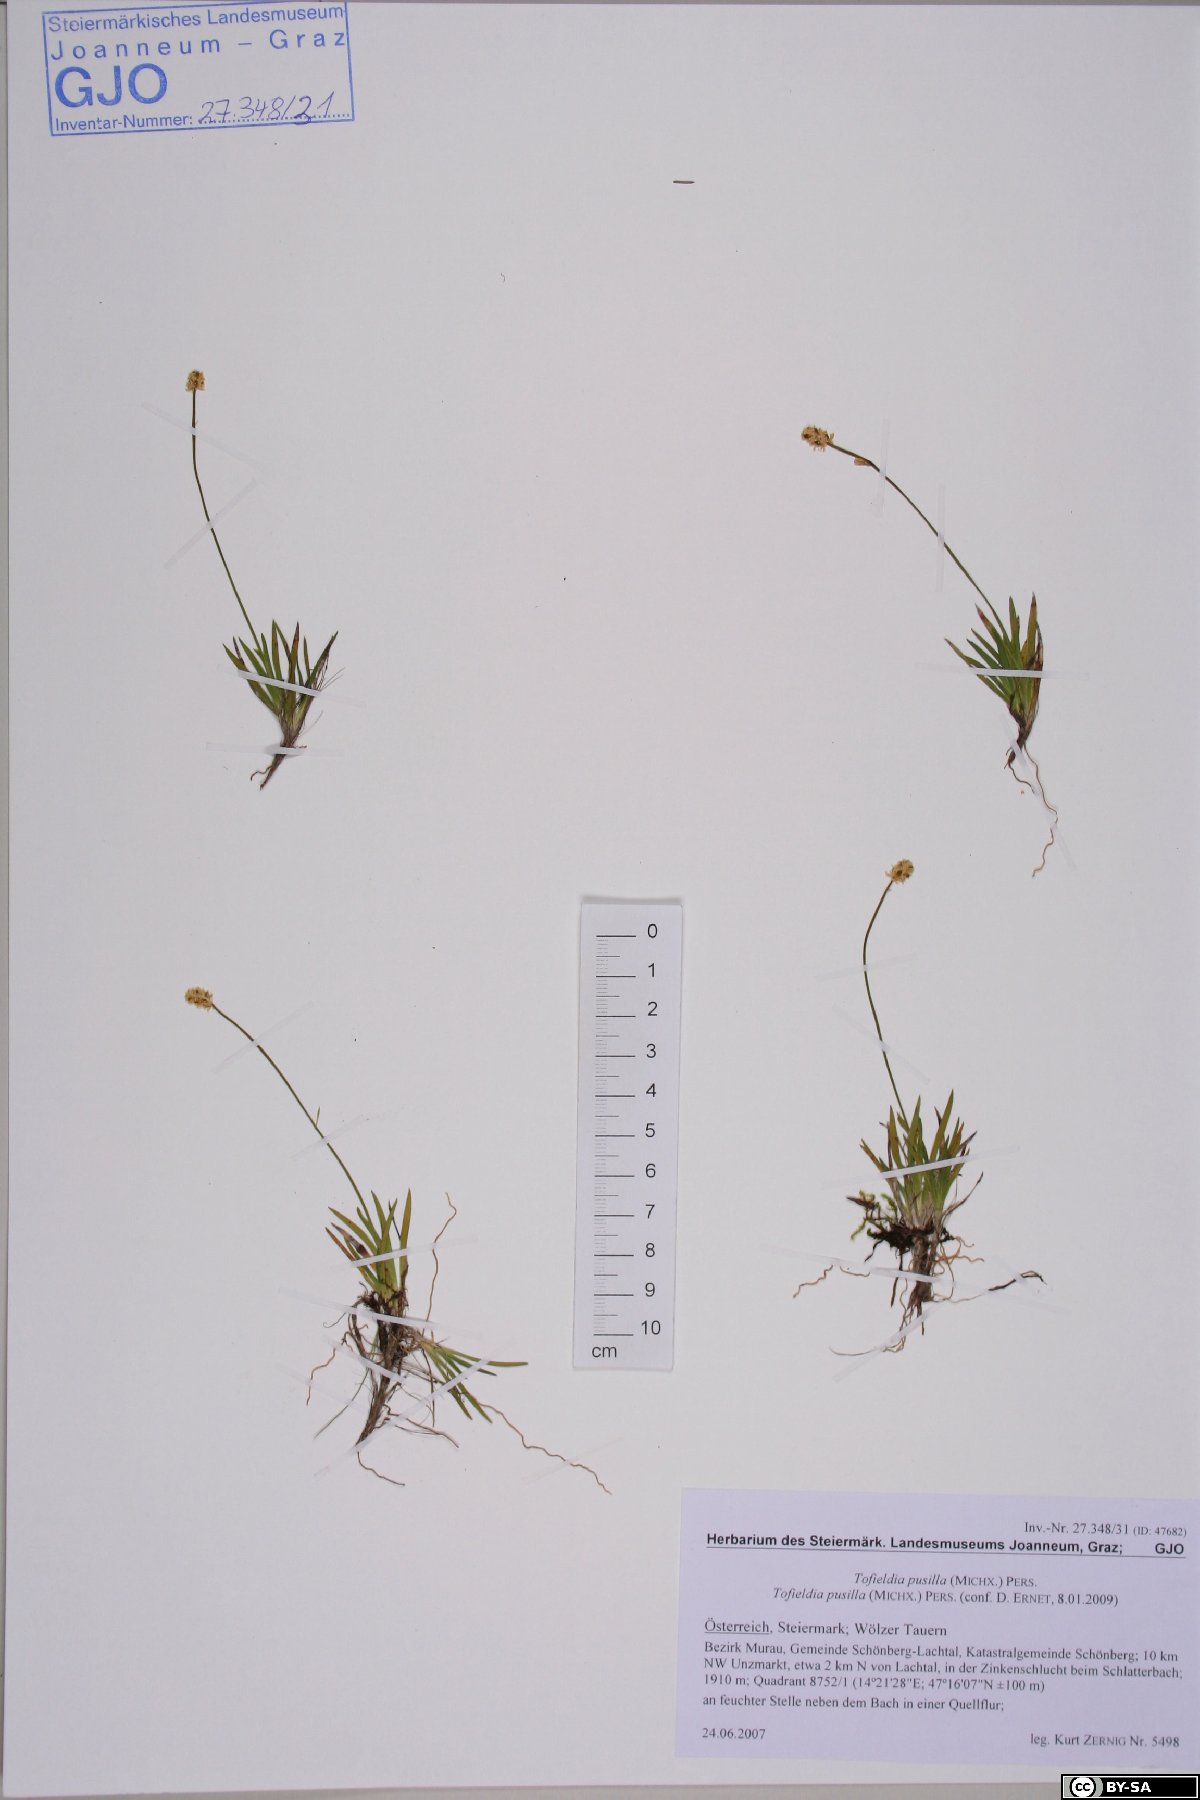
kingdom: Plantae
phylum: Tracheophyta
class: Liliopsida
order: Alismatales
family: Tofieldiaceae
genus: Tofieldia
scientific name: Tofieldia pusilla
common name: Scottish false asphodel
